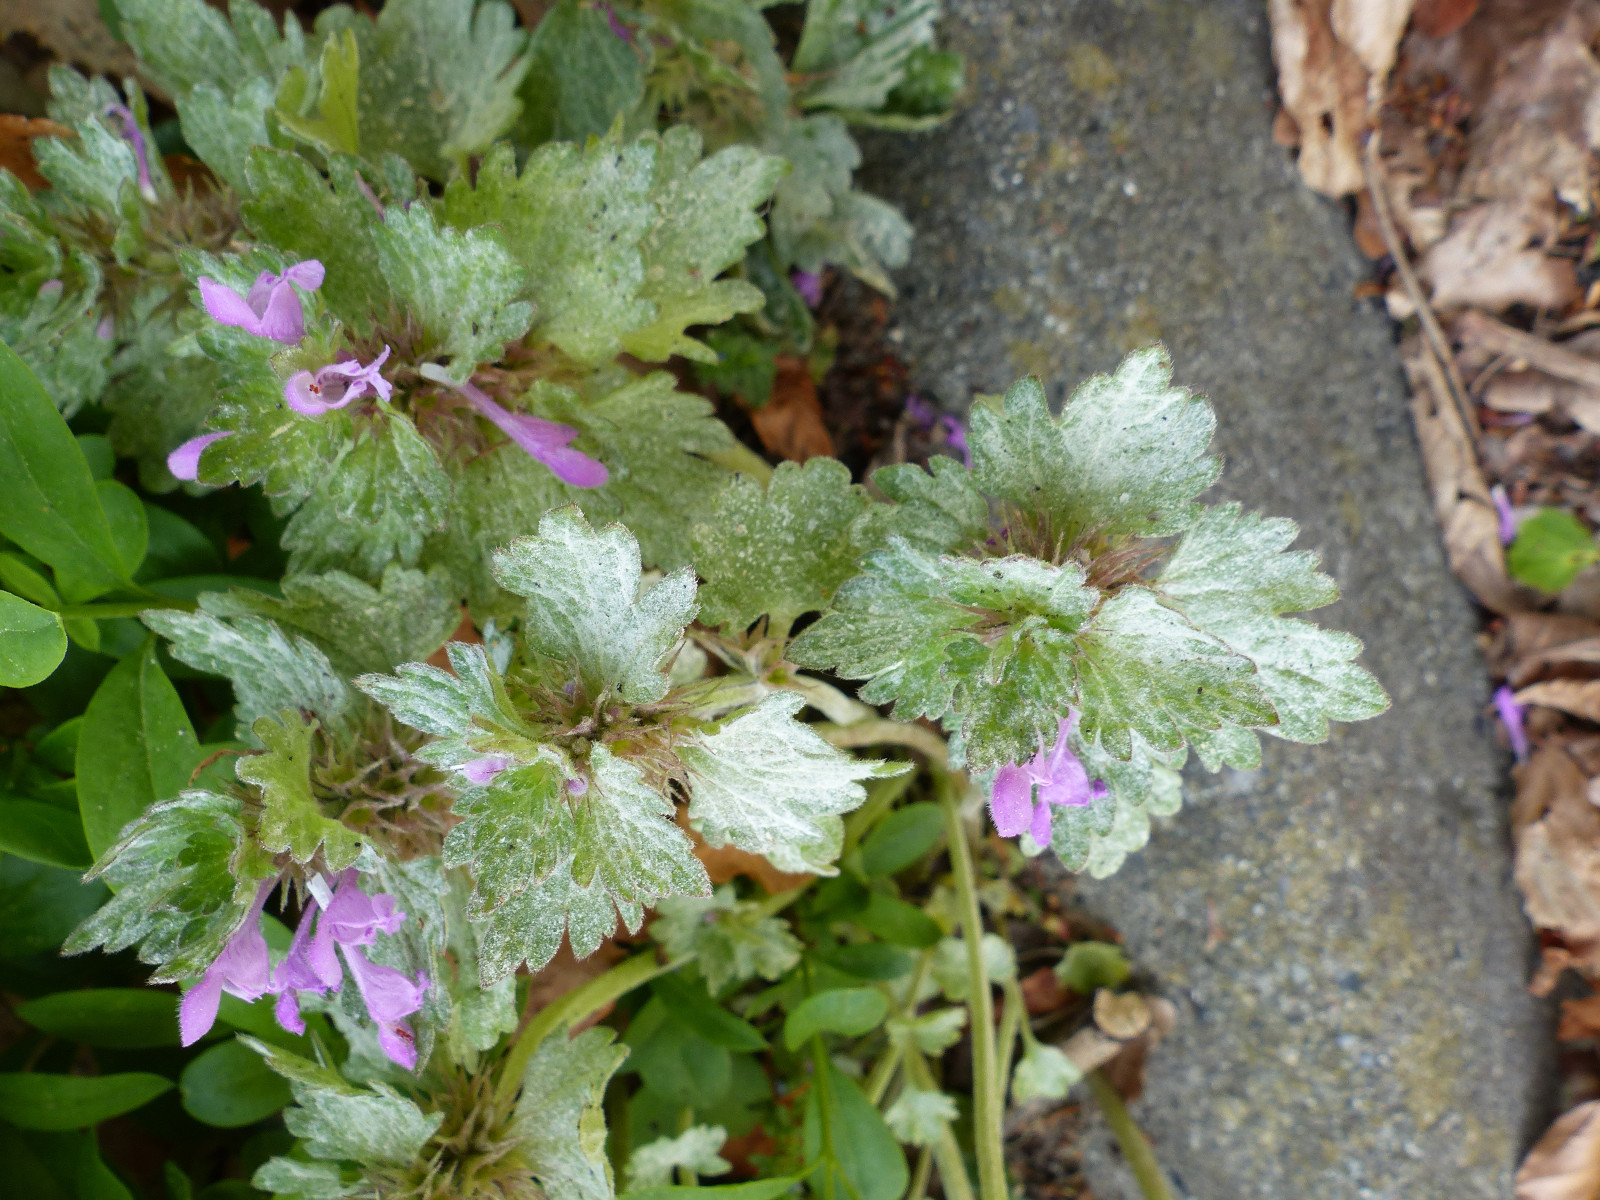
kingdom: Fungi
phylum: Ascomycota
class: Leotiomycetes
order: Helotiales
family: Erysiphaceae
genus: Neoerysiphe
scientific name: Neoerysiphe galeopsidis
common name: Mint mildew
